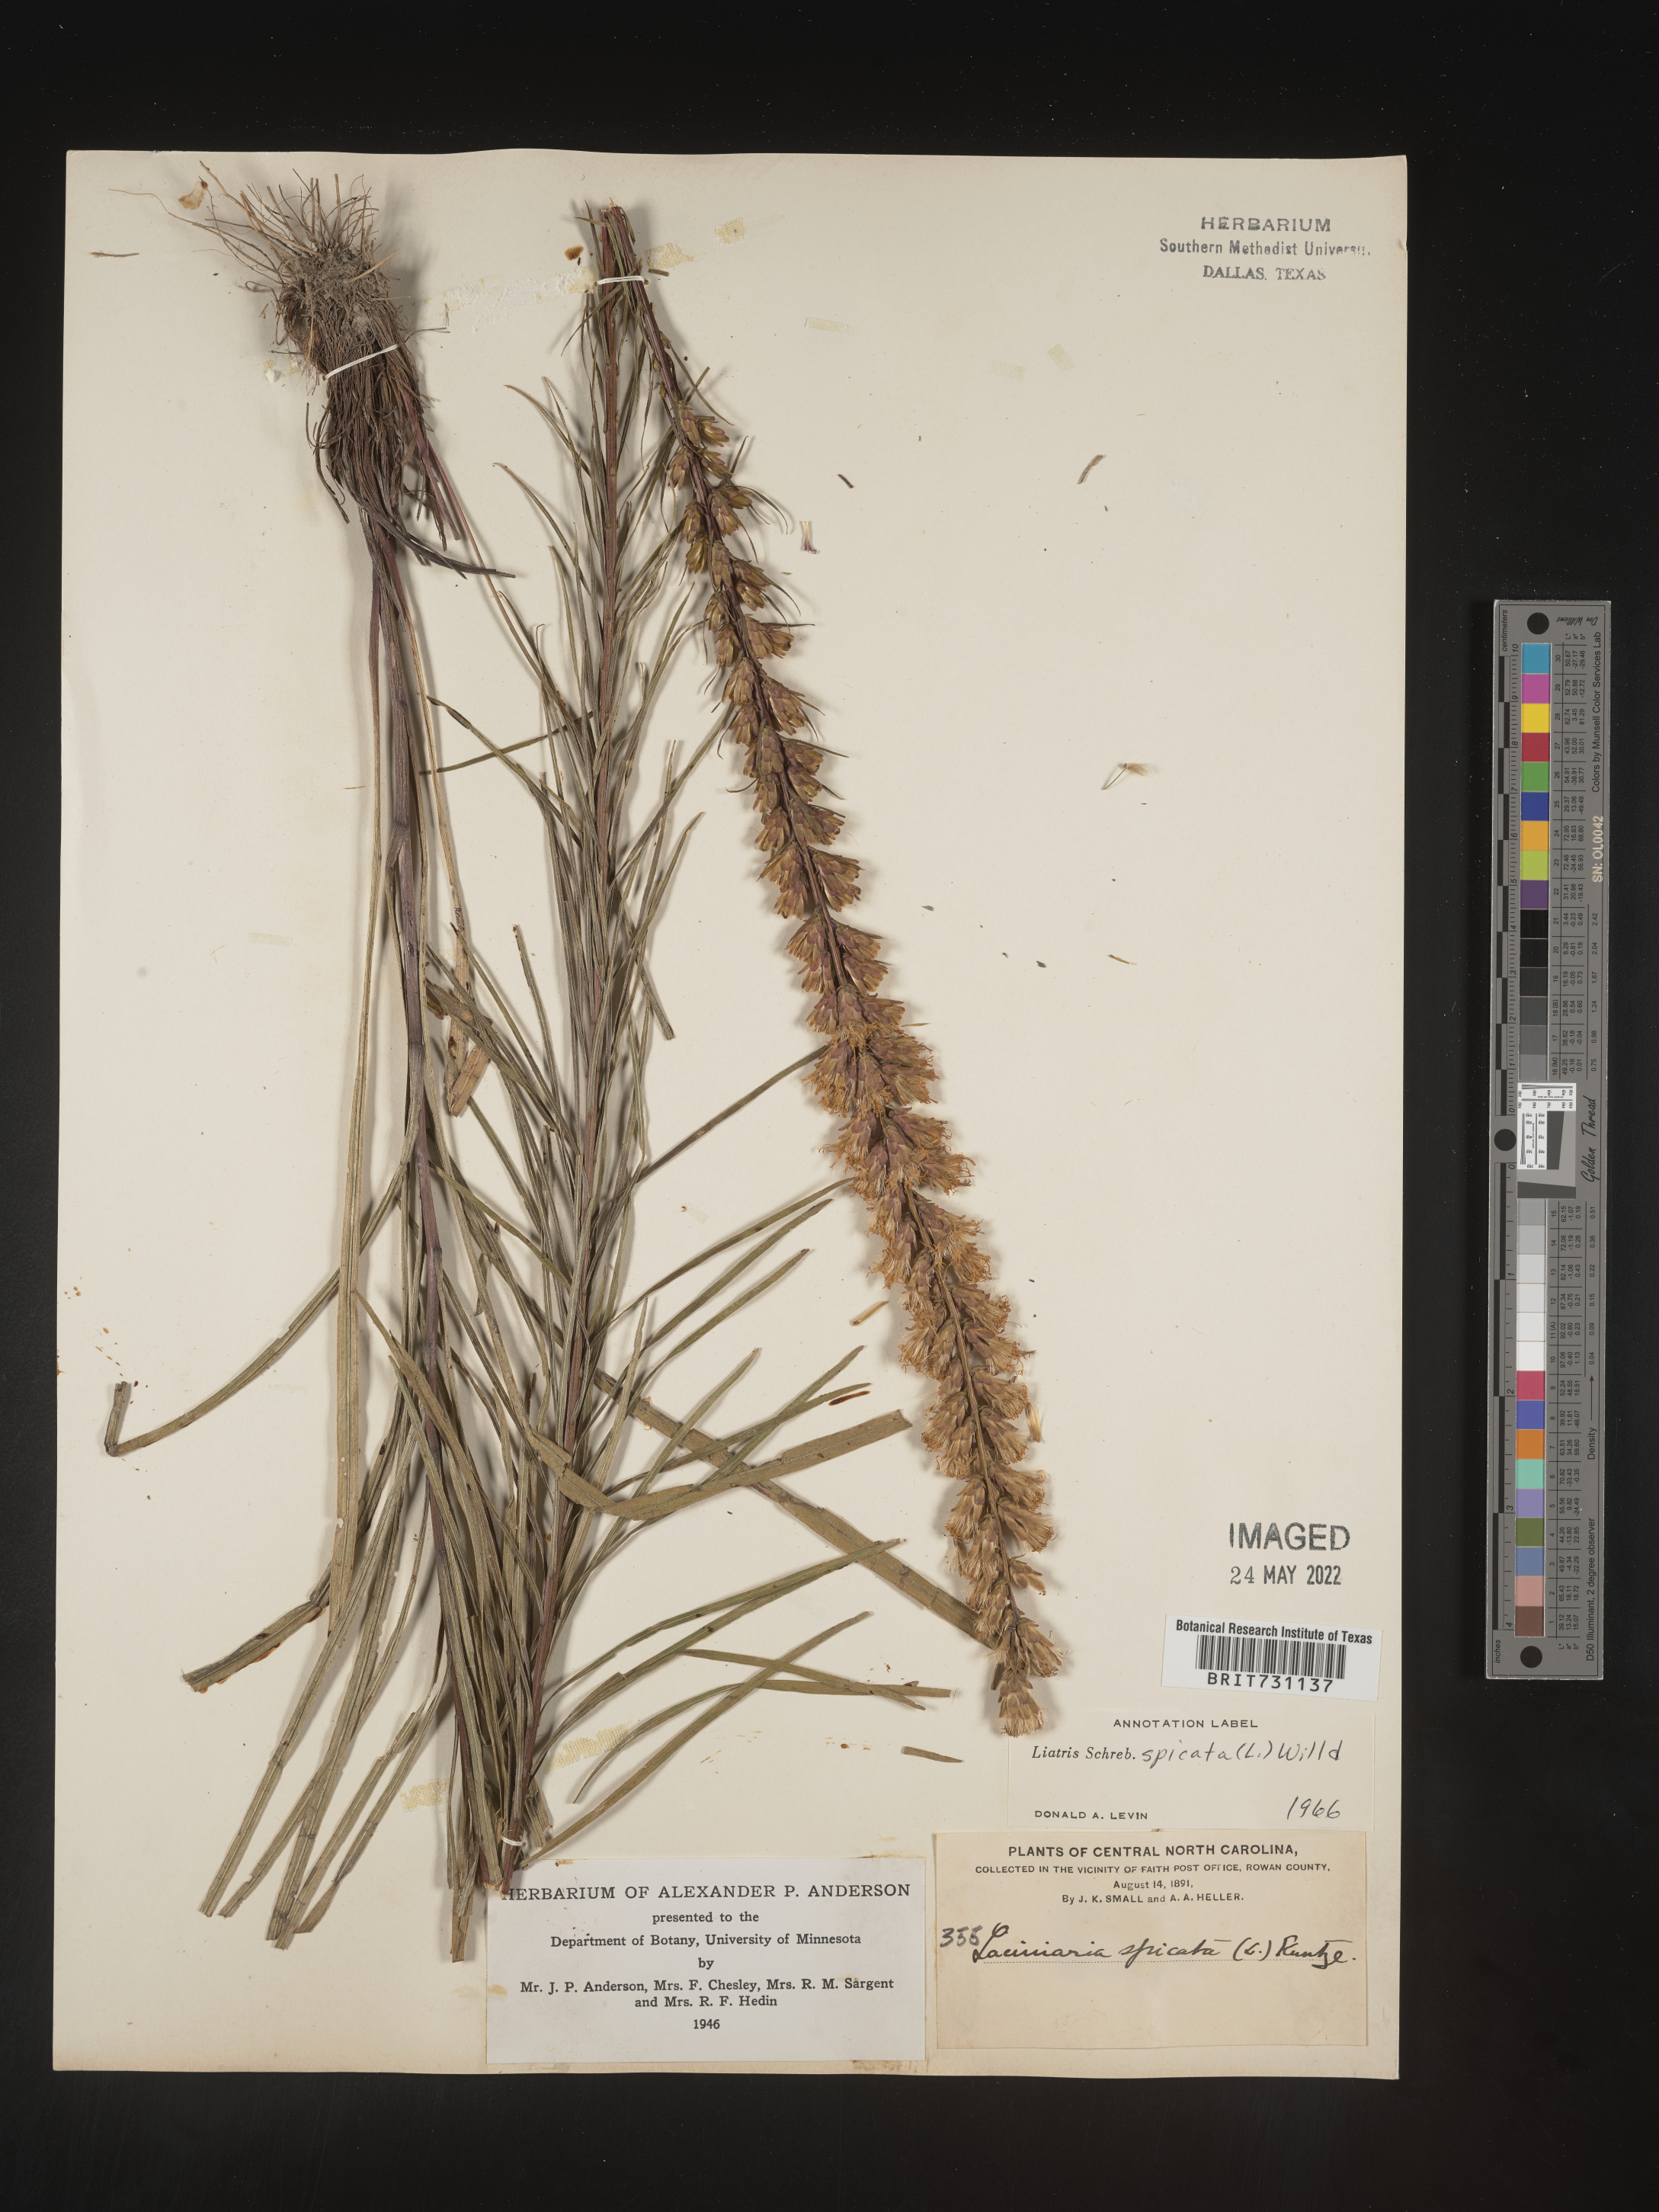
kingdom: Plantae
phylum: Tracheophyta
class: Magnoliopsida
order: Asterales
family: Asteraceae
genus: Liatris
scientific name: Liatris spicata
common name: Florist gayfeather
